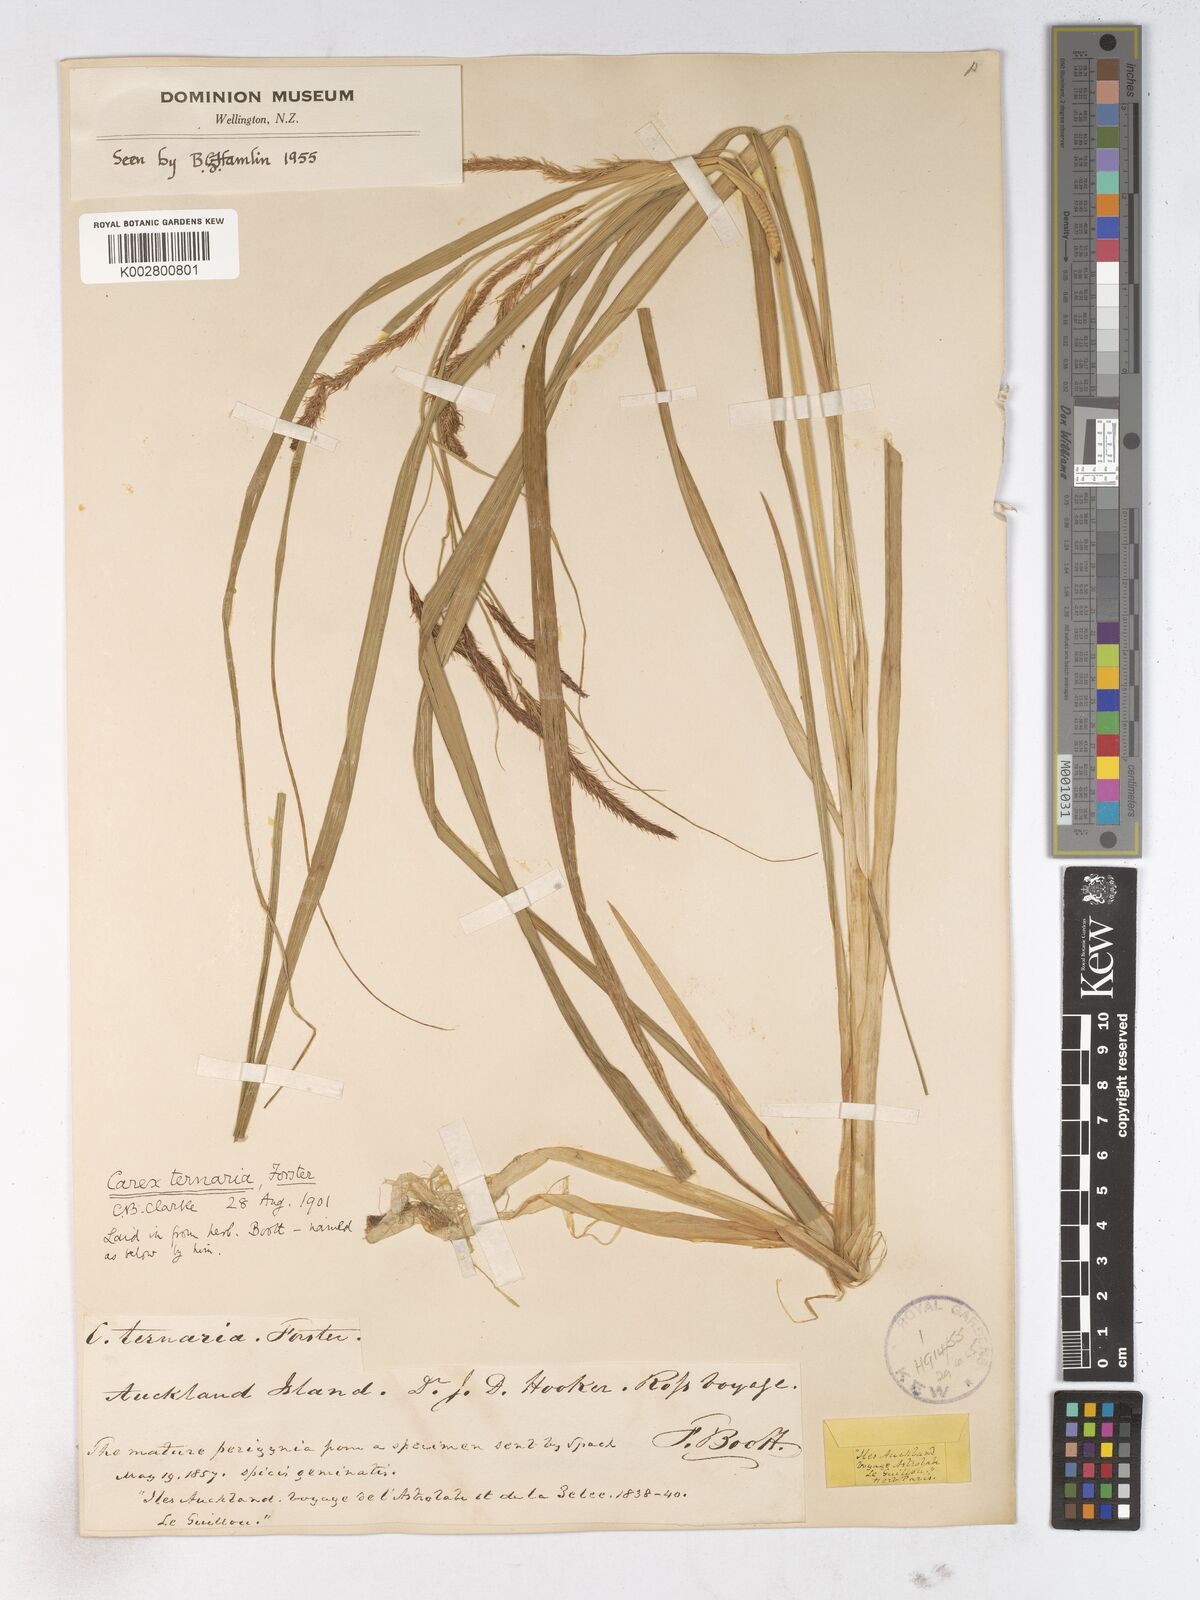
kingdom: Plantae
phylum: Tracheophyta
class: Liliopsida
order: Poales
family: Cyperaceae
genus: Carex
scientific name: Carex geminata
